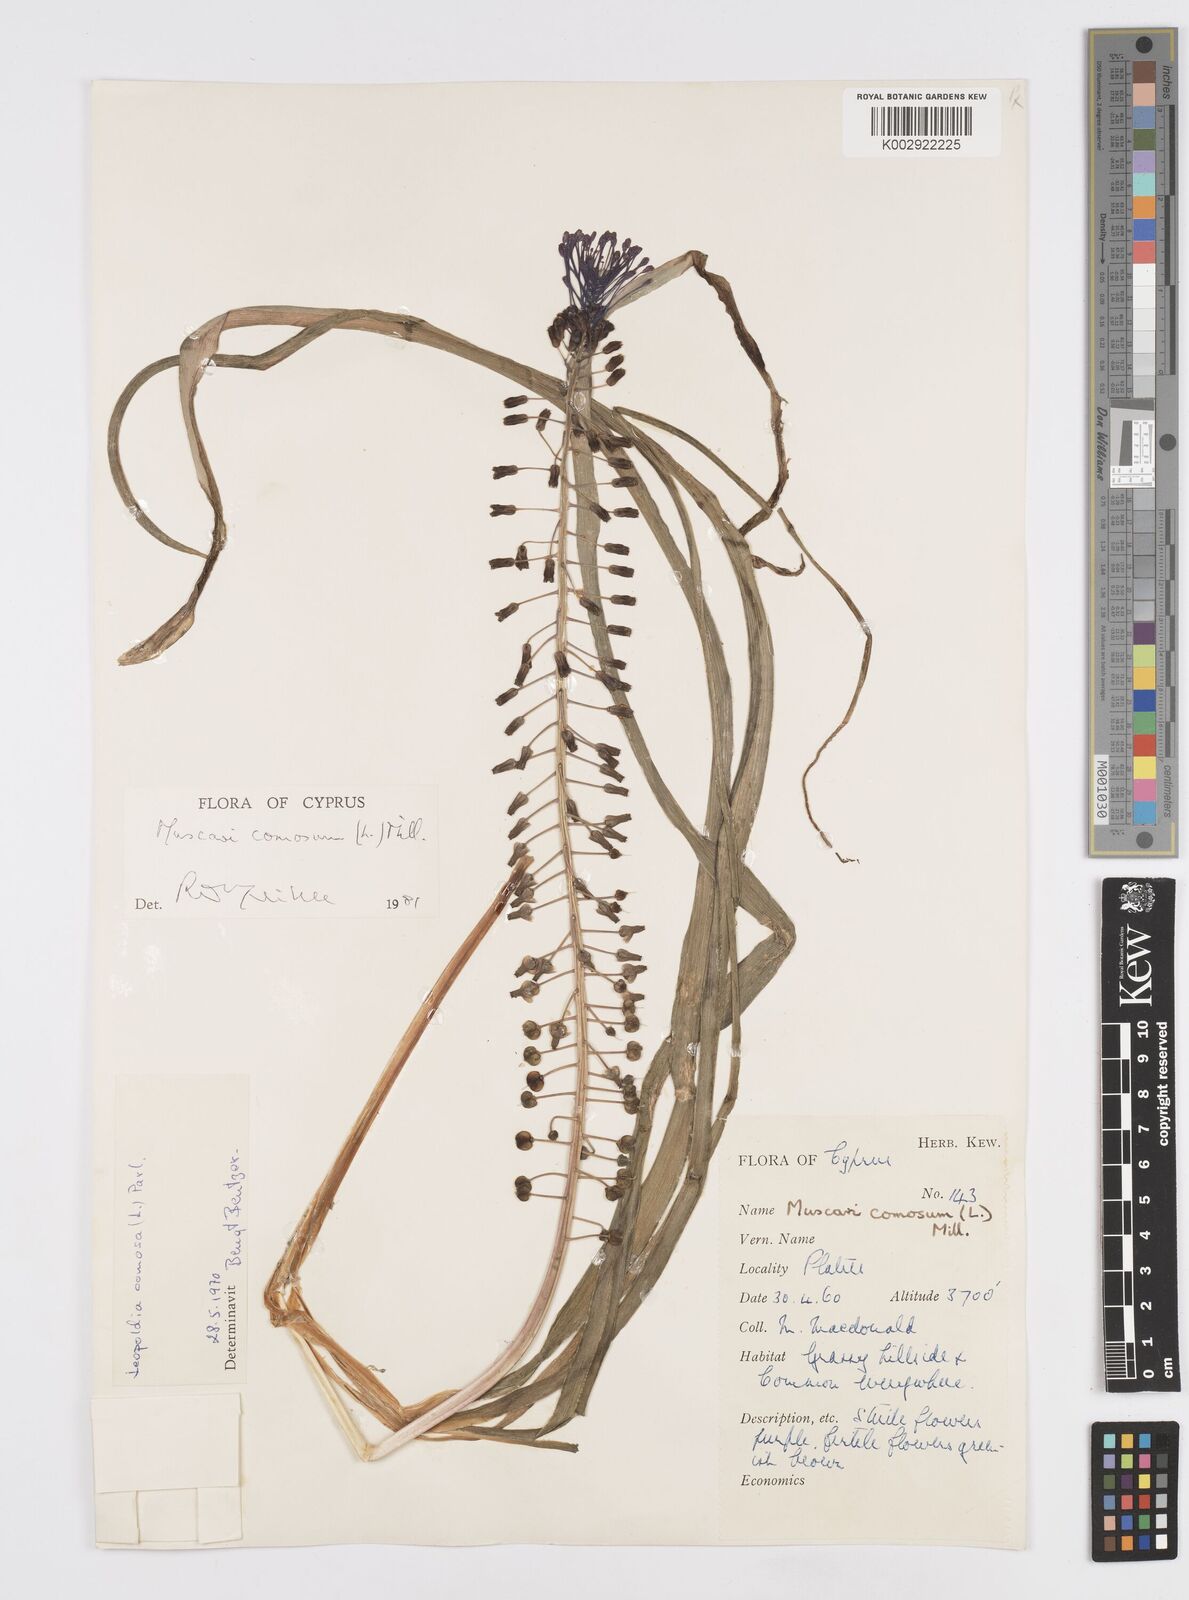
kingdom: Plantae
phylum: Tracheophyta
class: Liliopsida
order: Asparagales
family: Asparagaceae
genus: Muscari
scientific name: Muscari comosum
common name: Tassel hyacinth
